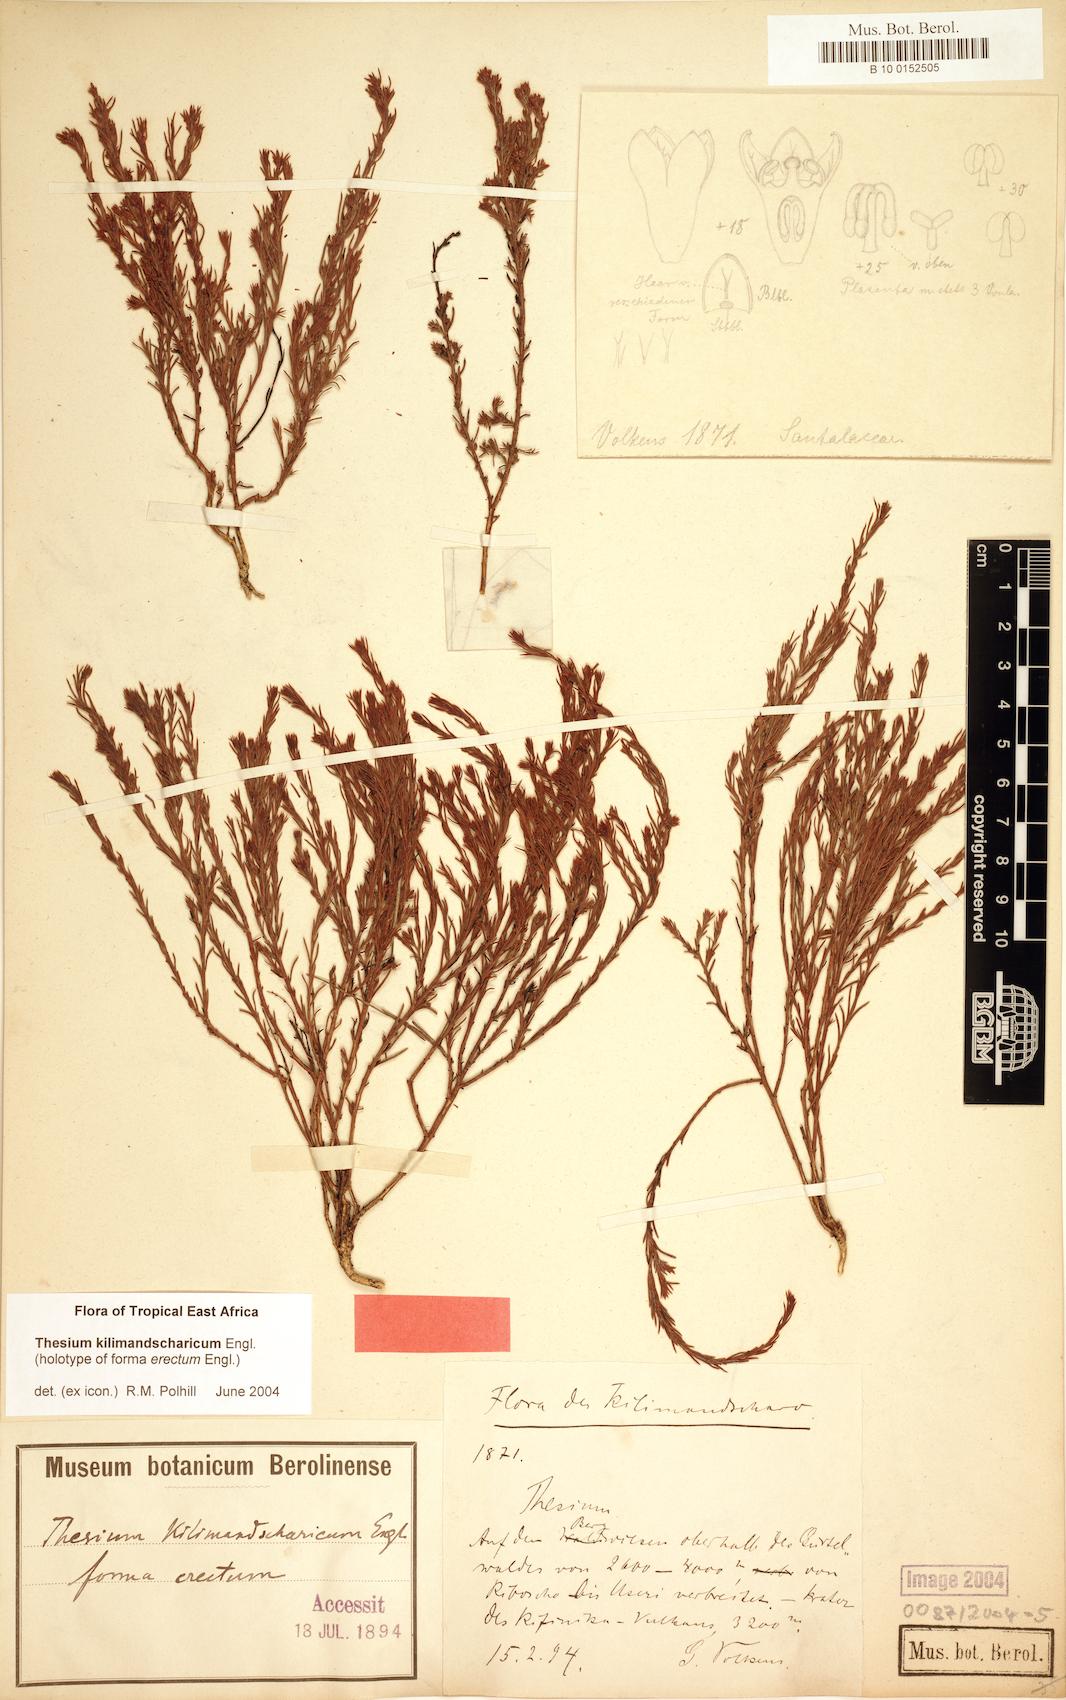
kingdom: Plantae
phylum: Tracheophyta
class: Magnoliopsida
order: Santalales
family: Thesiaceae
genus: Thesium
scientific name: Thesium kilimandscharicum
